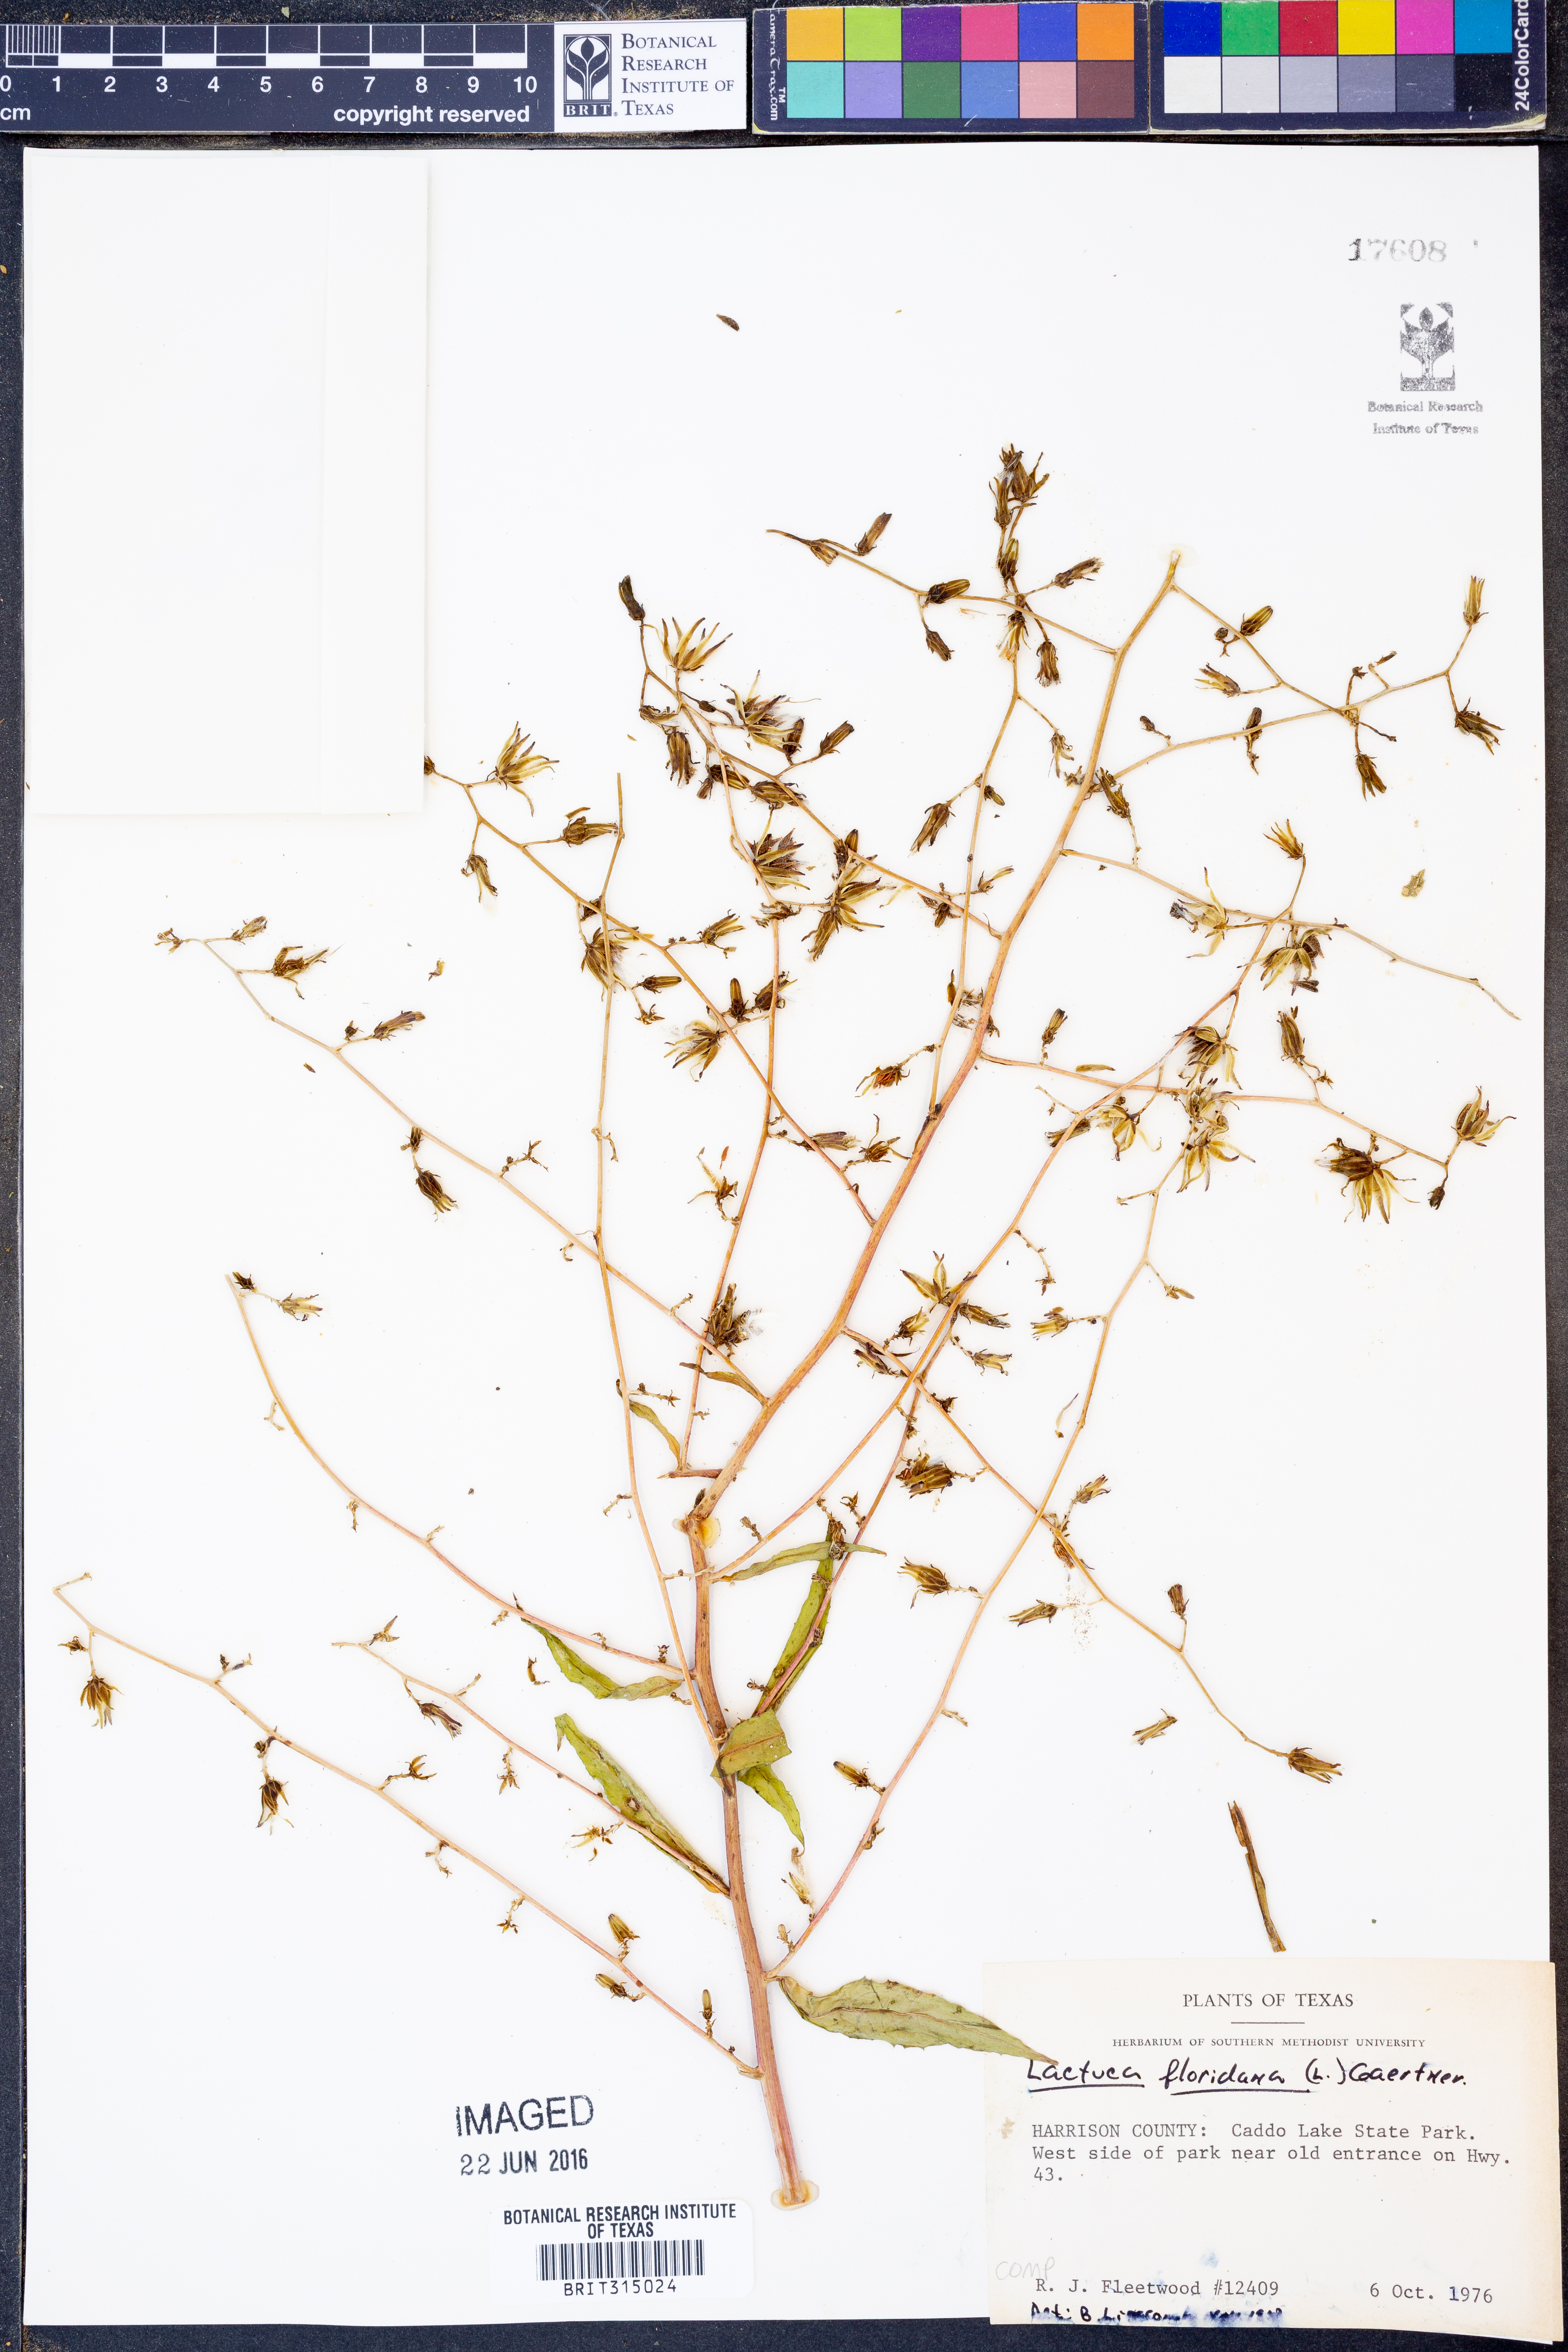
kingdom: Plantae
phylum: Tracheophyta
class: Magnoliopsida
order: Asterales
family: Asteraceae
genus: Lactuca
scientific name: Lactuca floridana
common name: Woodland lettuce
